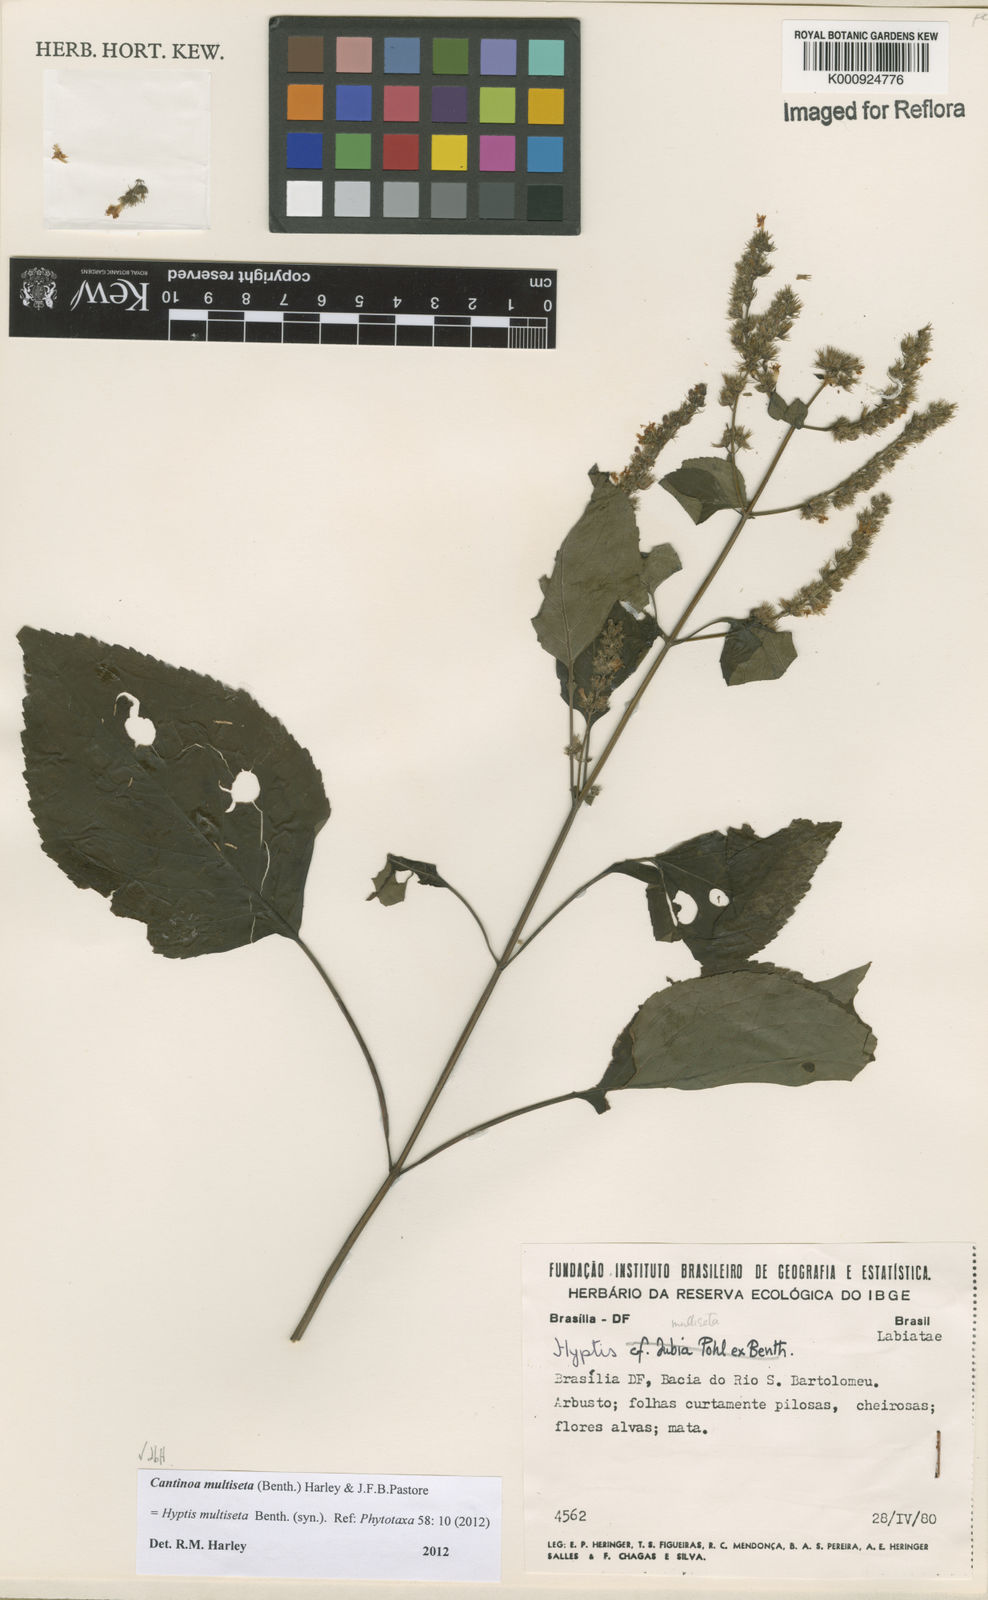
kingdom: Plantae
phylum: Tracheophyta
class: Magnoliopsida
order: Lamiales
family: Lamiaceae
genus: Cantinoa
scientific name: Cantinoa multiseta
